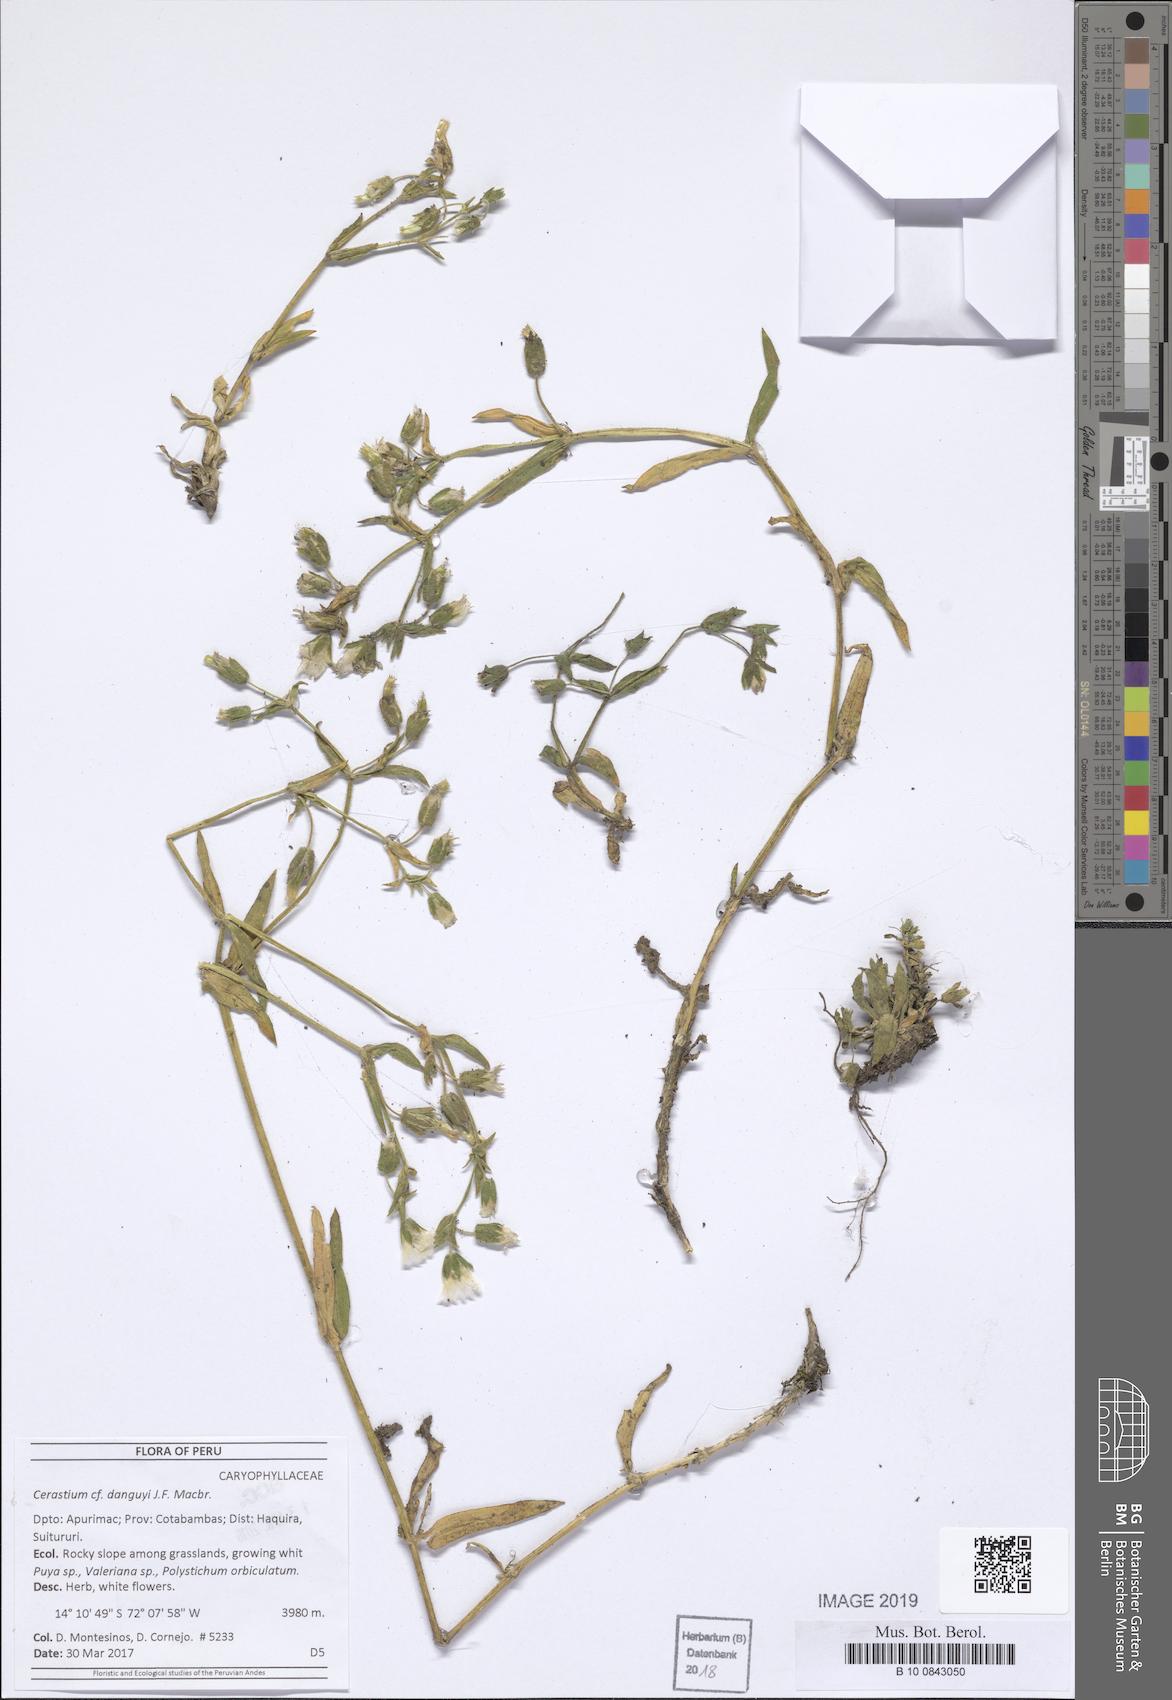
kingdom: Plantae
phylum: Tracheophyta
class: Magnoliopsida
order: Caryophyllales
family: Caryophyllaceae
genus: Cerastium
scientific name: Cerastium danguyi
